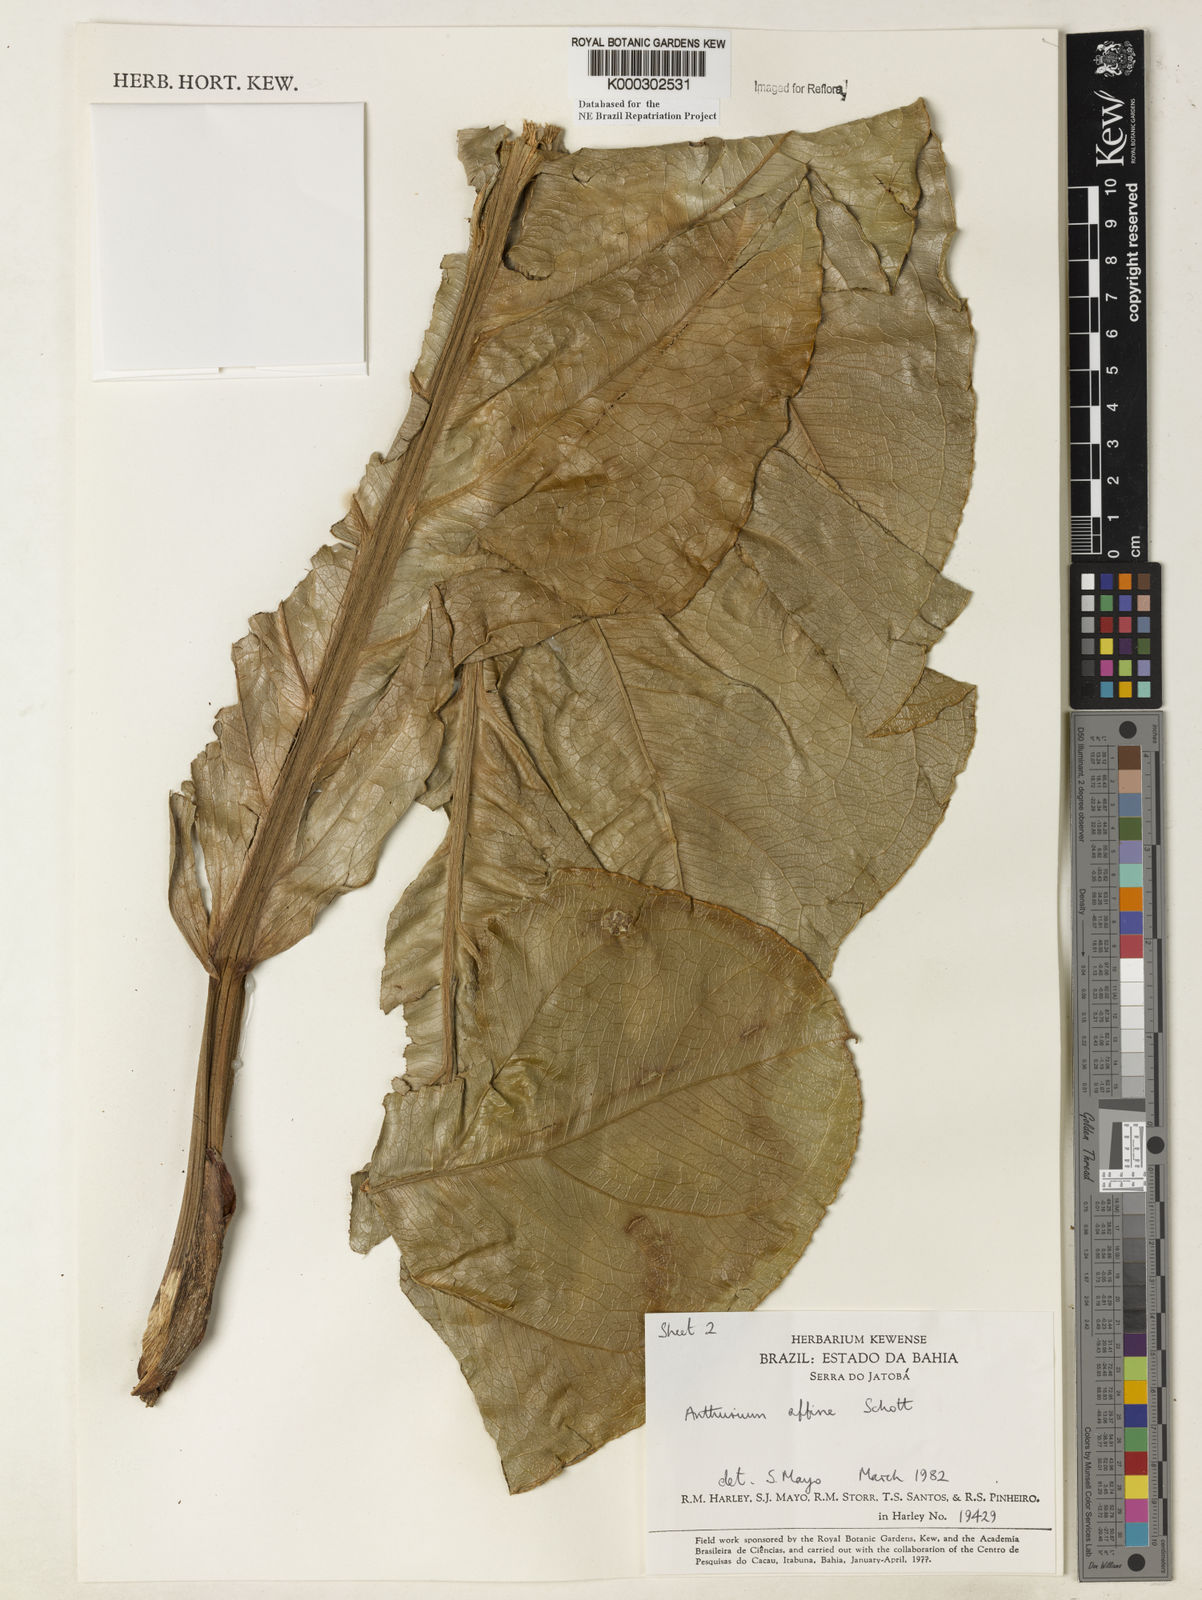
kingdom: Plantae
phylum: Tracheophyta
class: Liliopsida
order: Alismatales
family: Araceae
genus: Anthurium
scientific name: Anthurium affine
